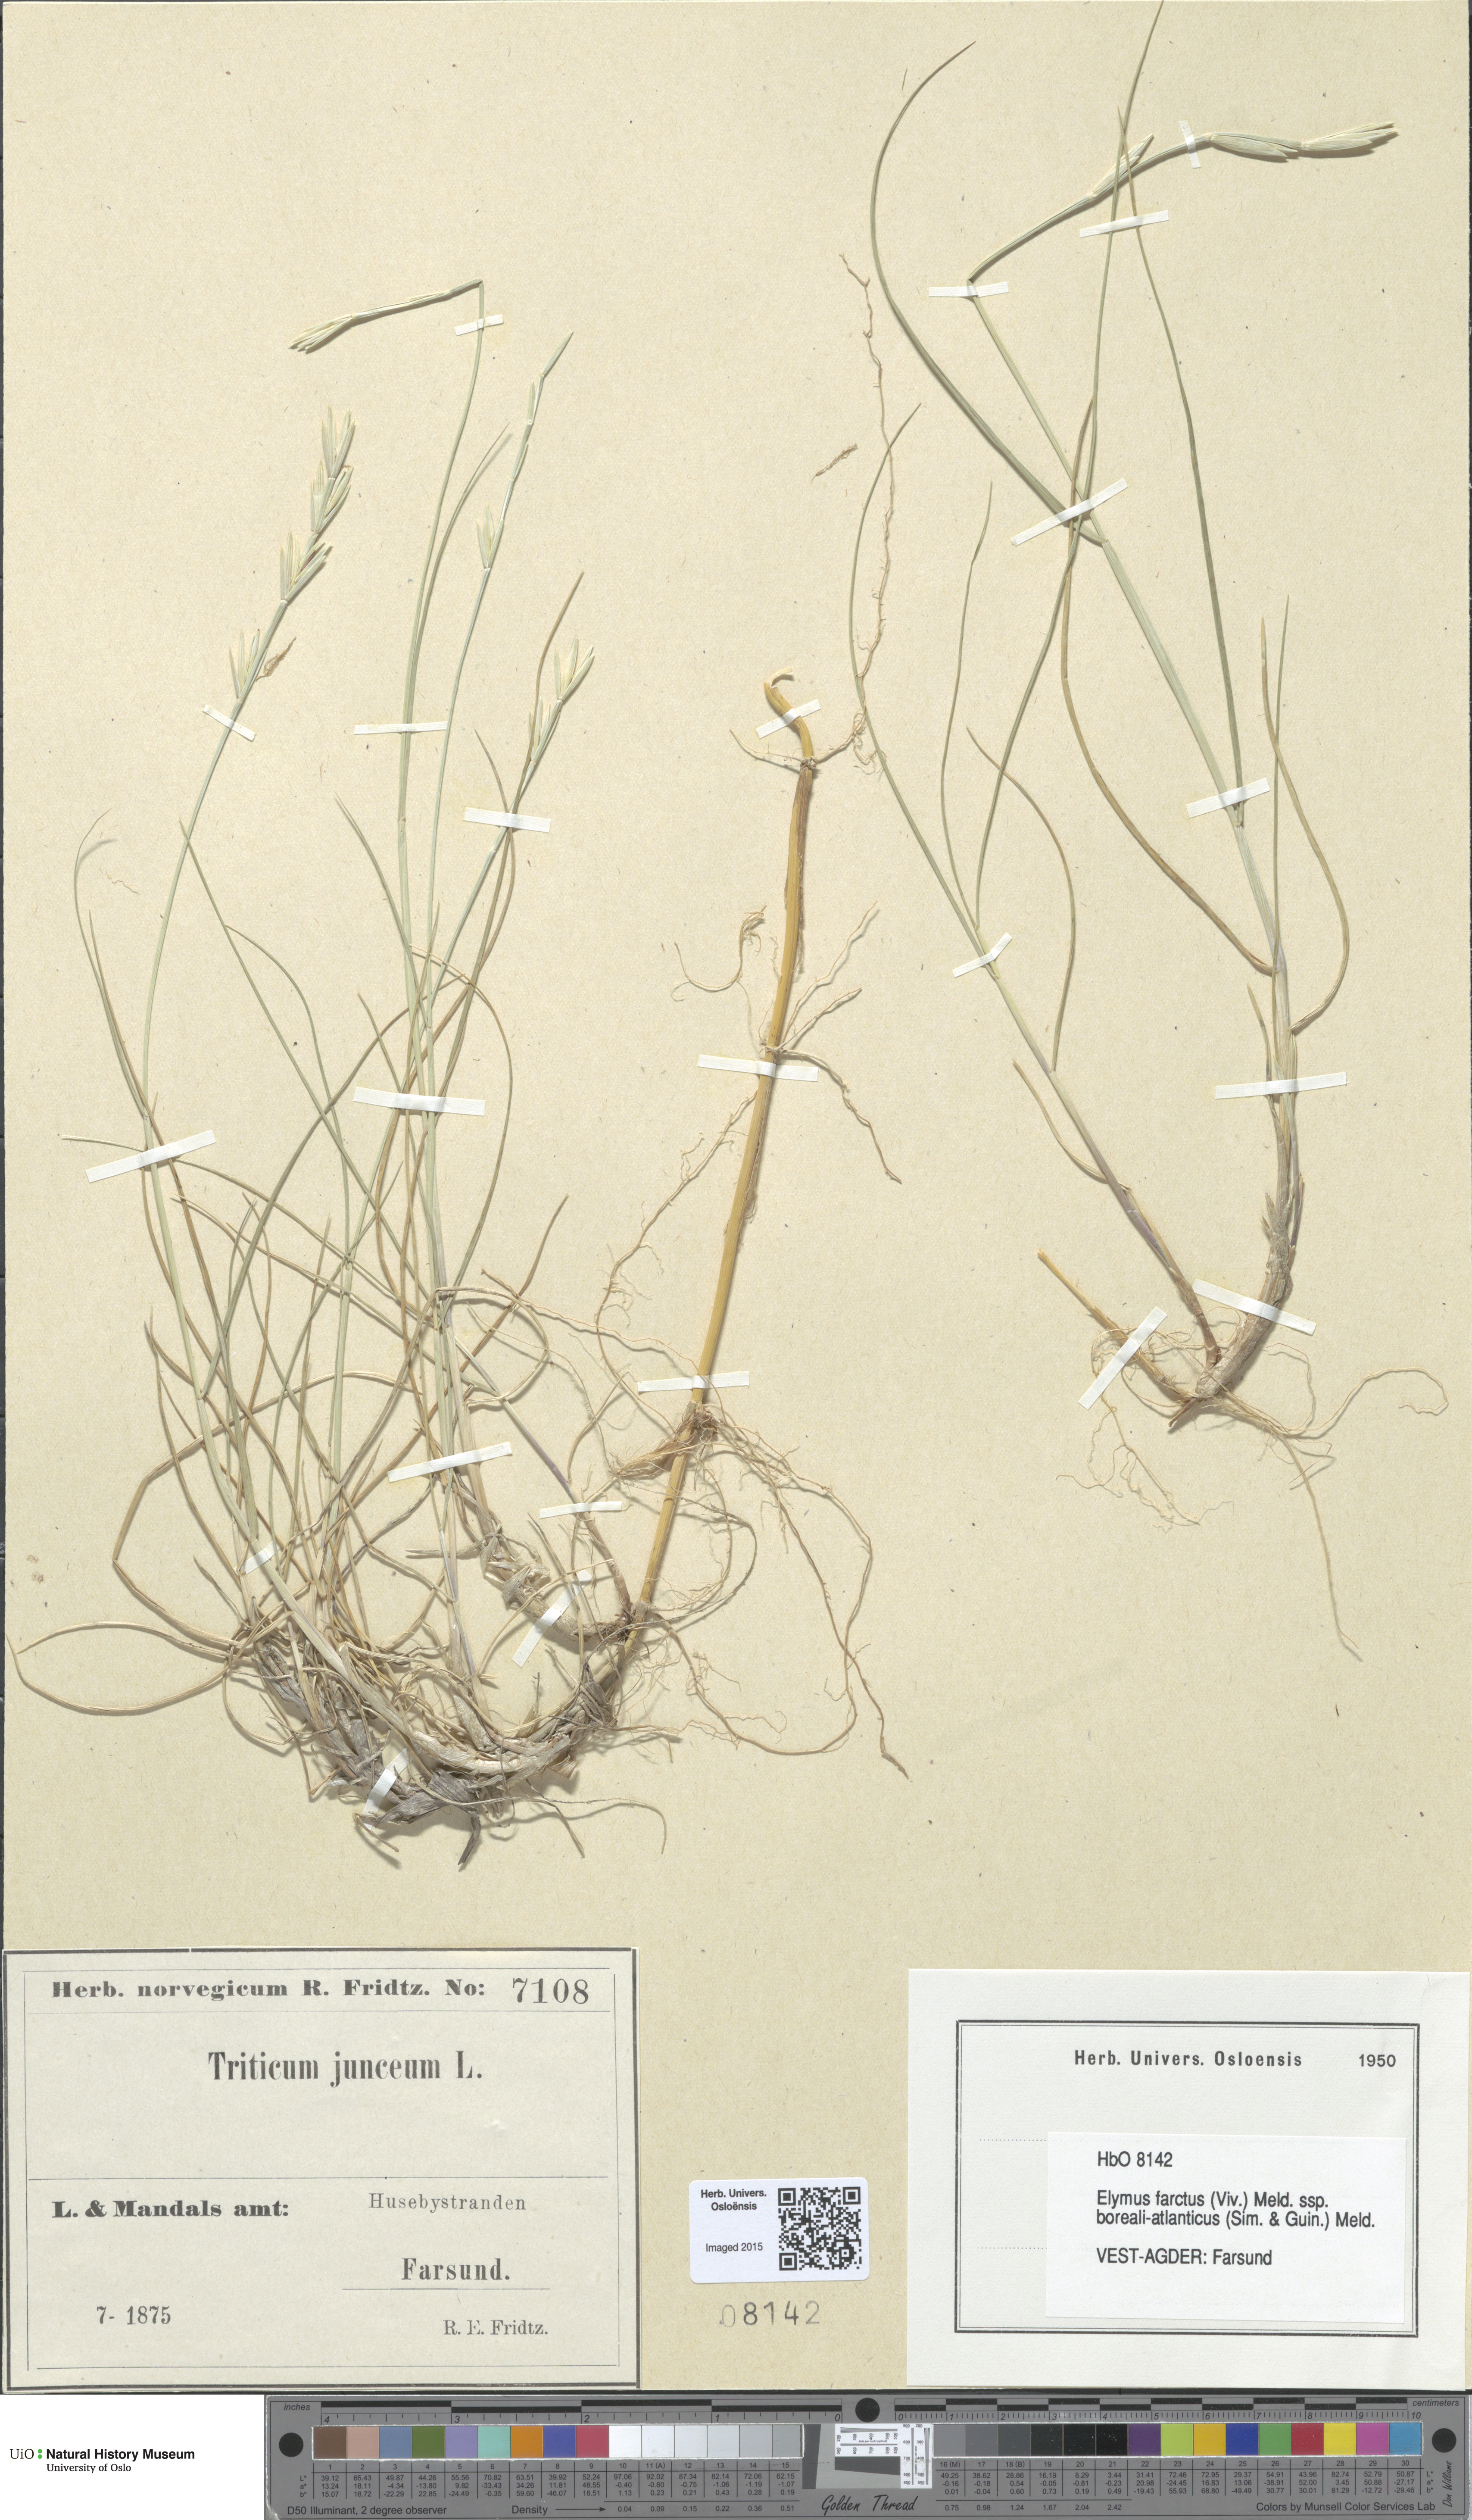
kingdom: Plantae
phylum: Tracheophyta
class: Liliopsida
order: Poales
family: Poaceae
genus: Thinopyrum
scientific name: Thinopyrum junceiforme
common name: Sea couch
